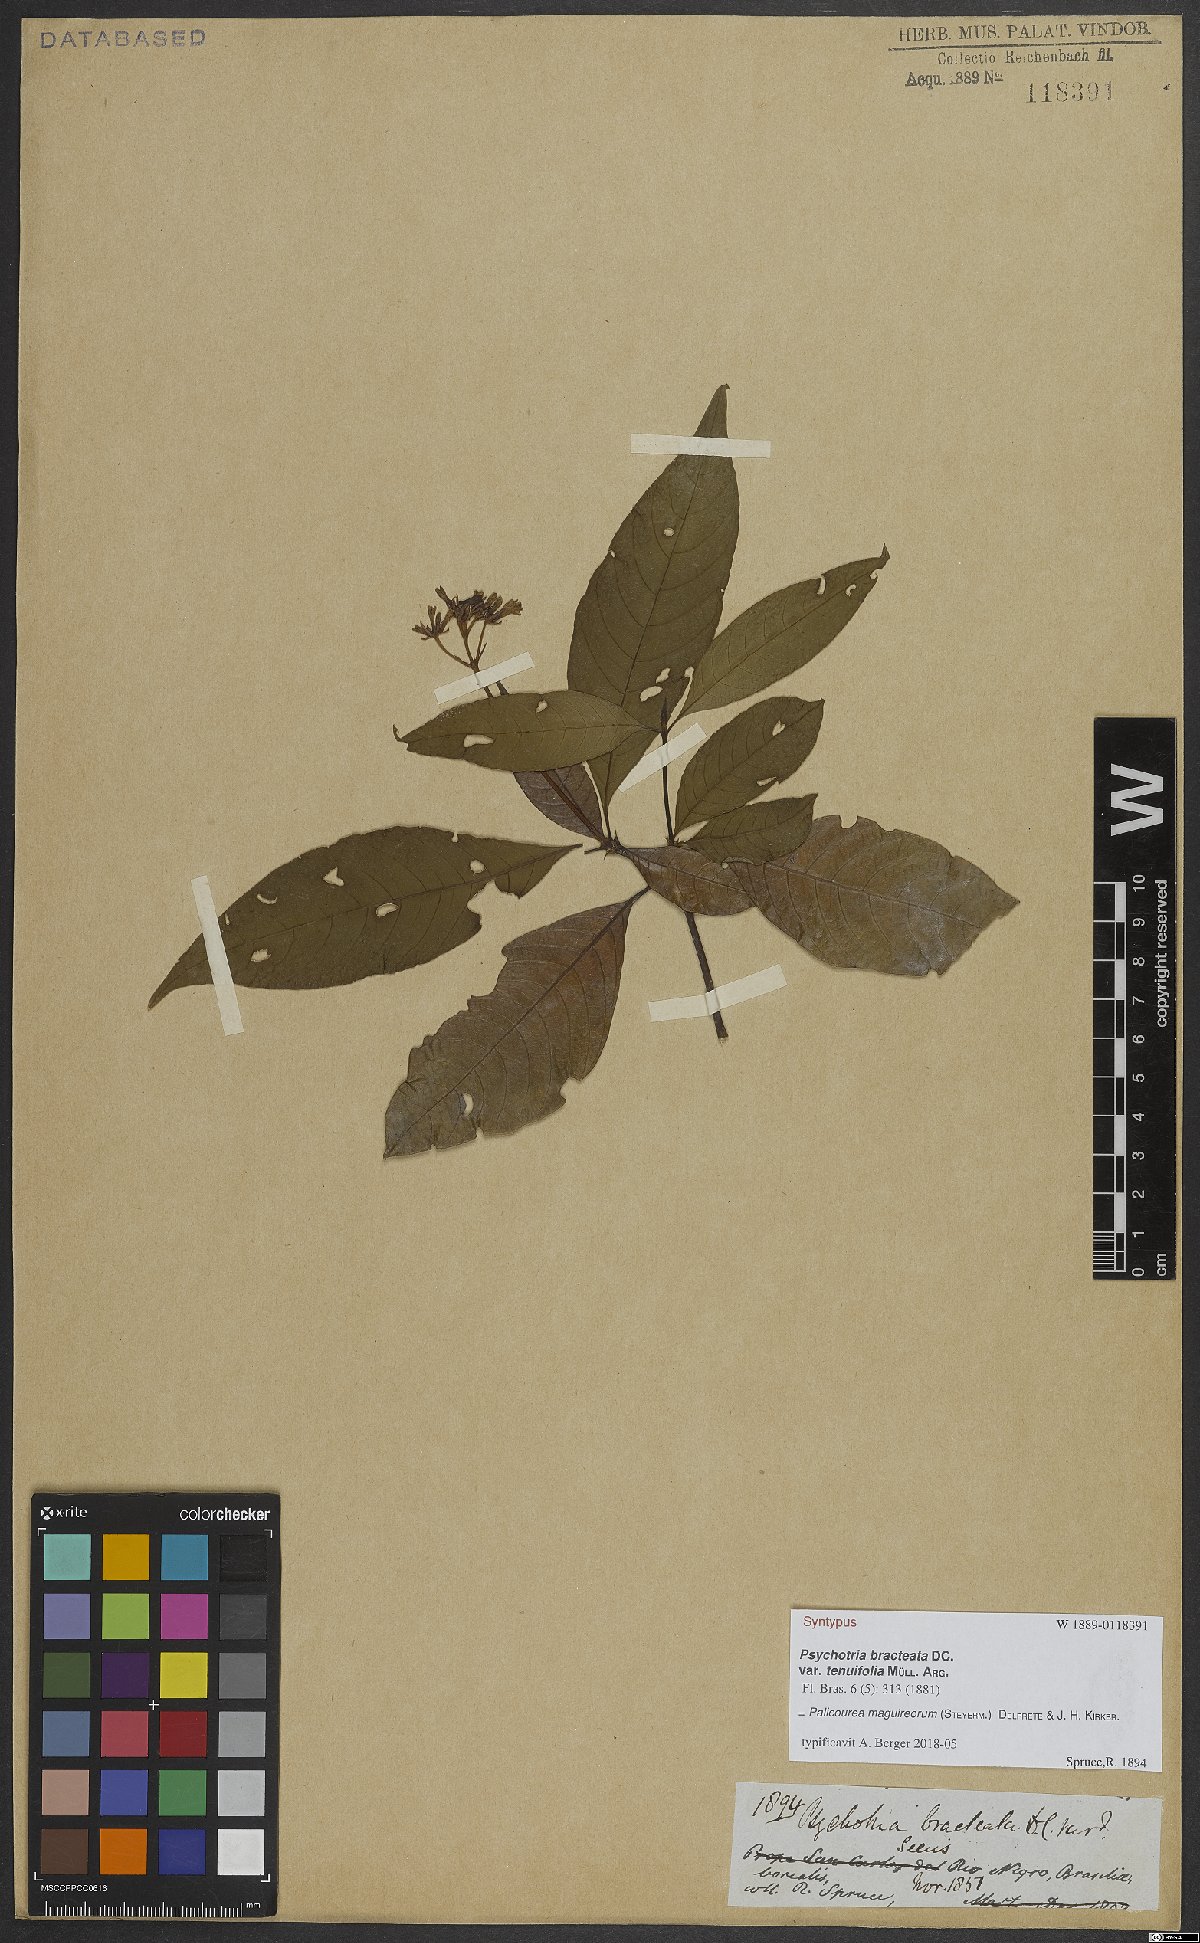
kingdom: Plantae
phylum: Tracheophyta
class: Magnoliopsida
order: Gentianales
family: Rubiaceae
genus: Palicourea
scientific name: Palicourea maguireorum
